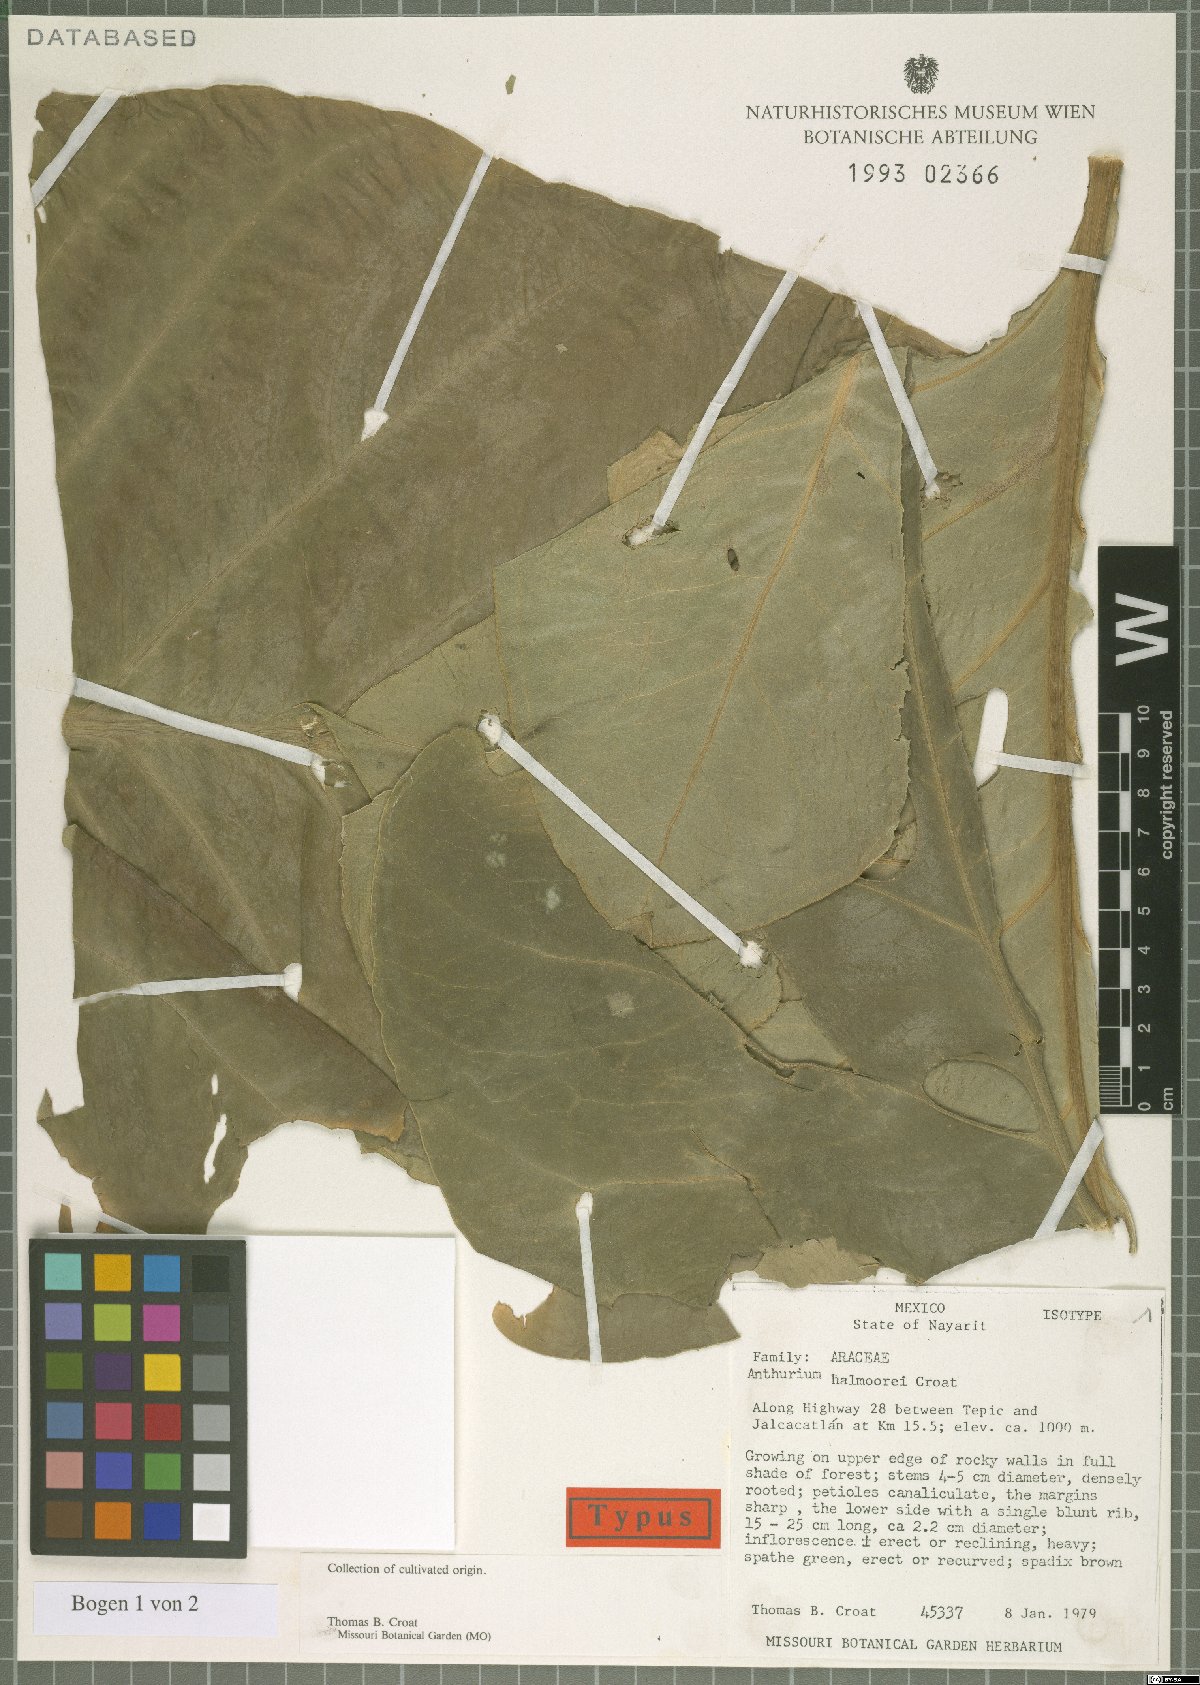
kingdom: Plantae
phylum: Tracheophyta
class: Liliopsida
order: Alismatales
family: Araceae
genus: Anthurium
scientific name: Anthurium halmoorei
